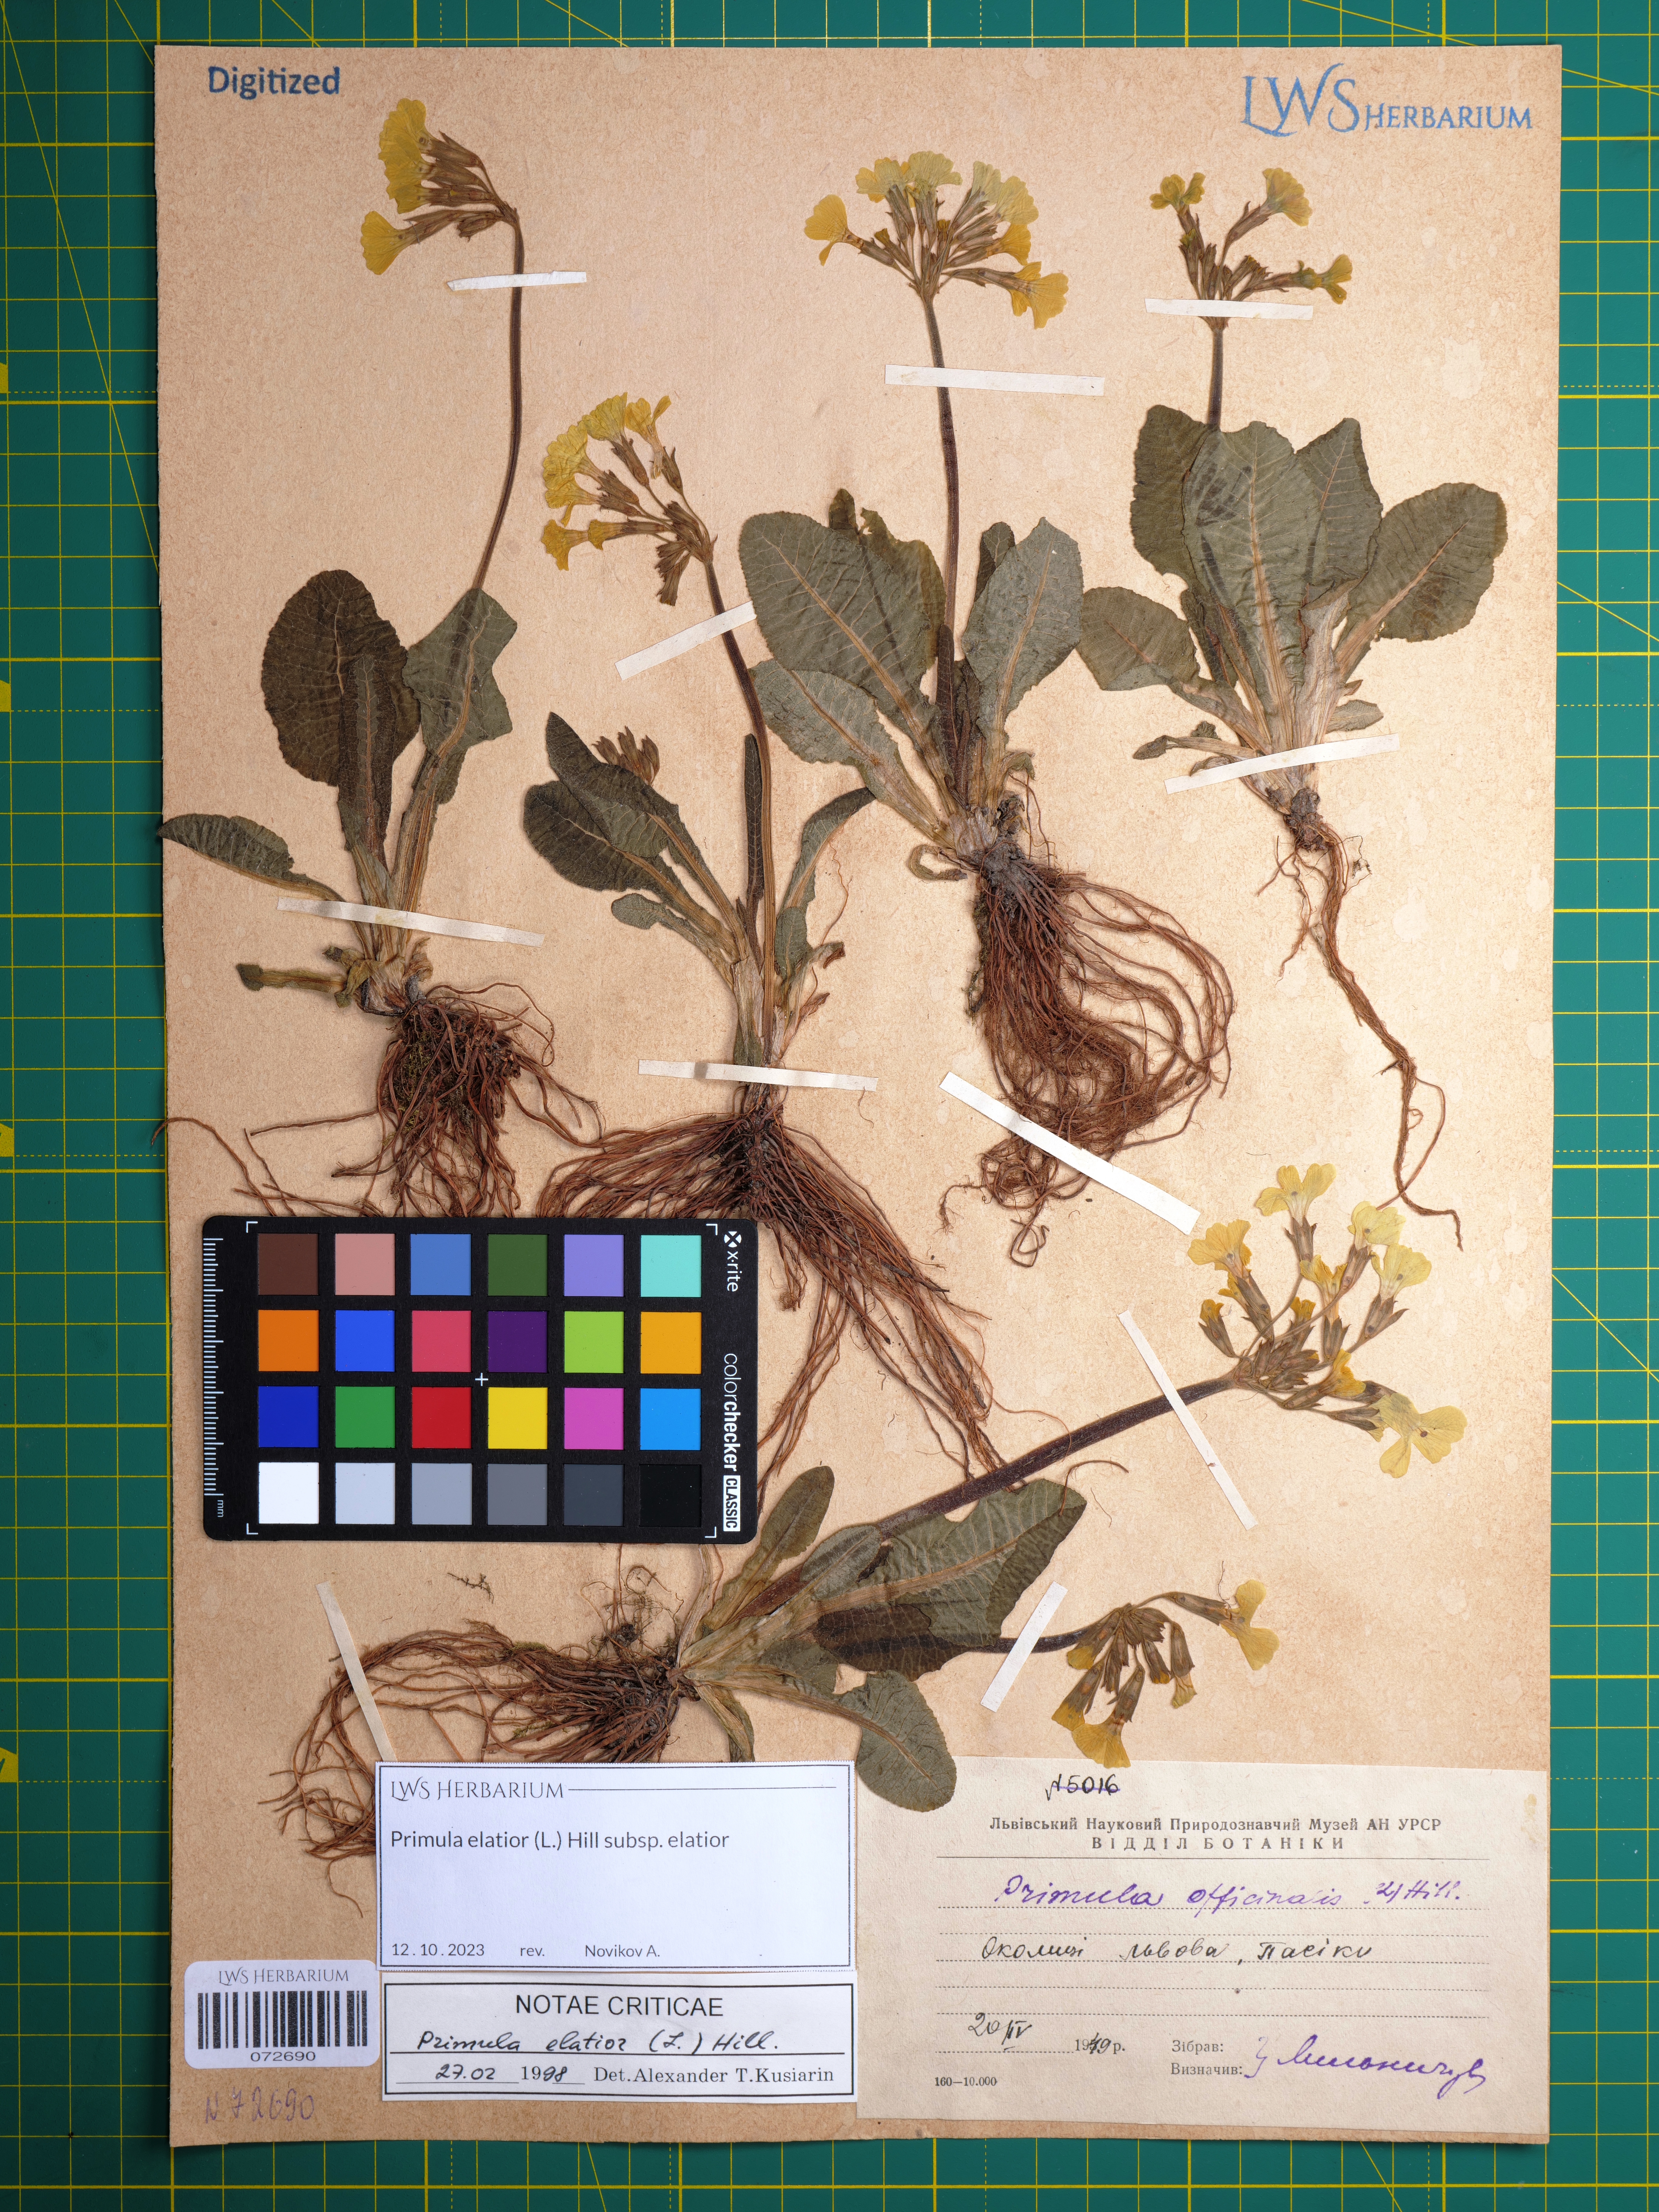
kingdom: Plantae
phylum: Tracheophyta
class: Magnoliopsida
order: Ericales
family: Primulaceae
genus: Primula
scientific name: Primula elatior
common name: Oxlip
